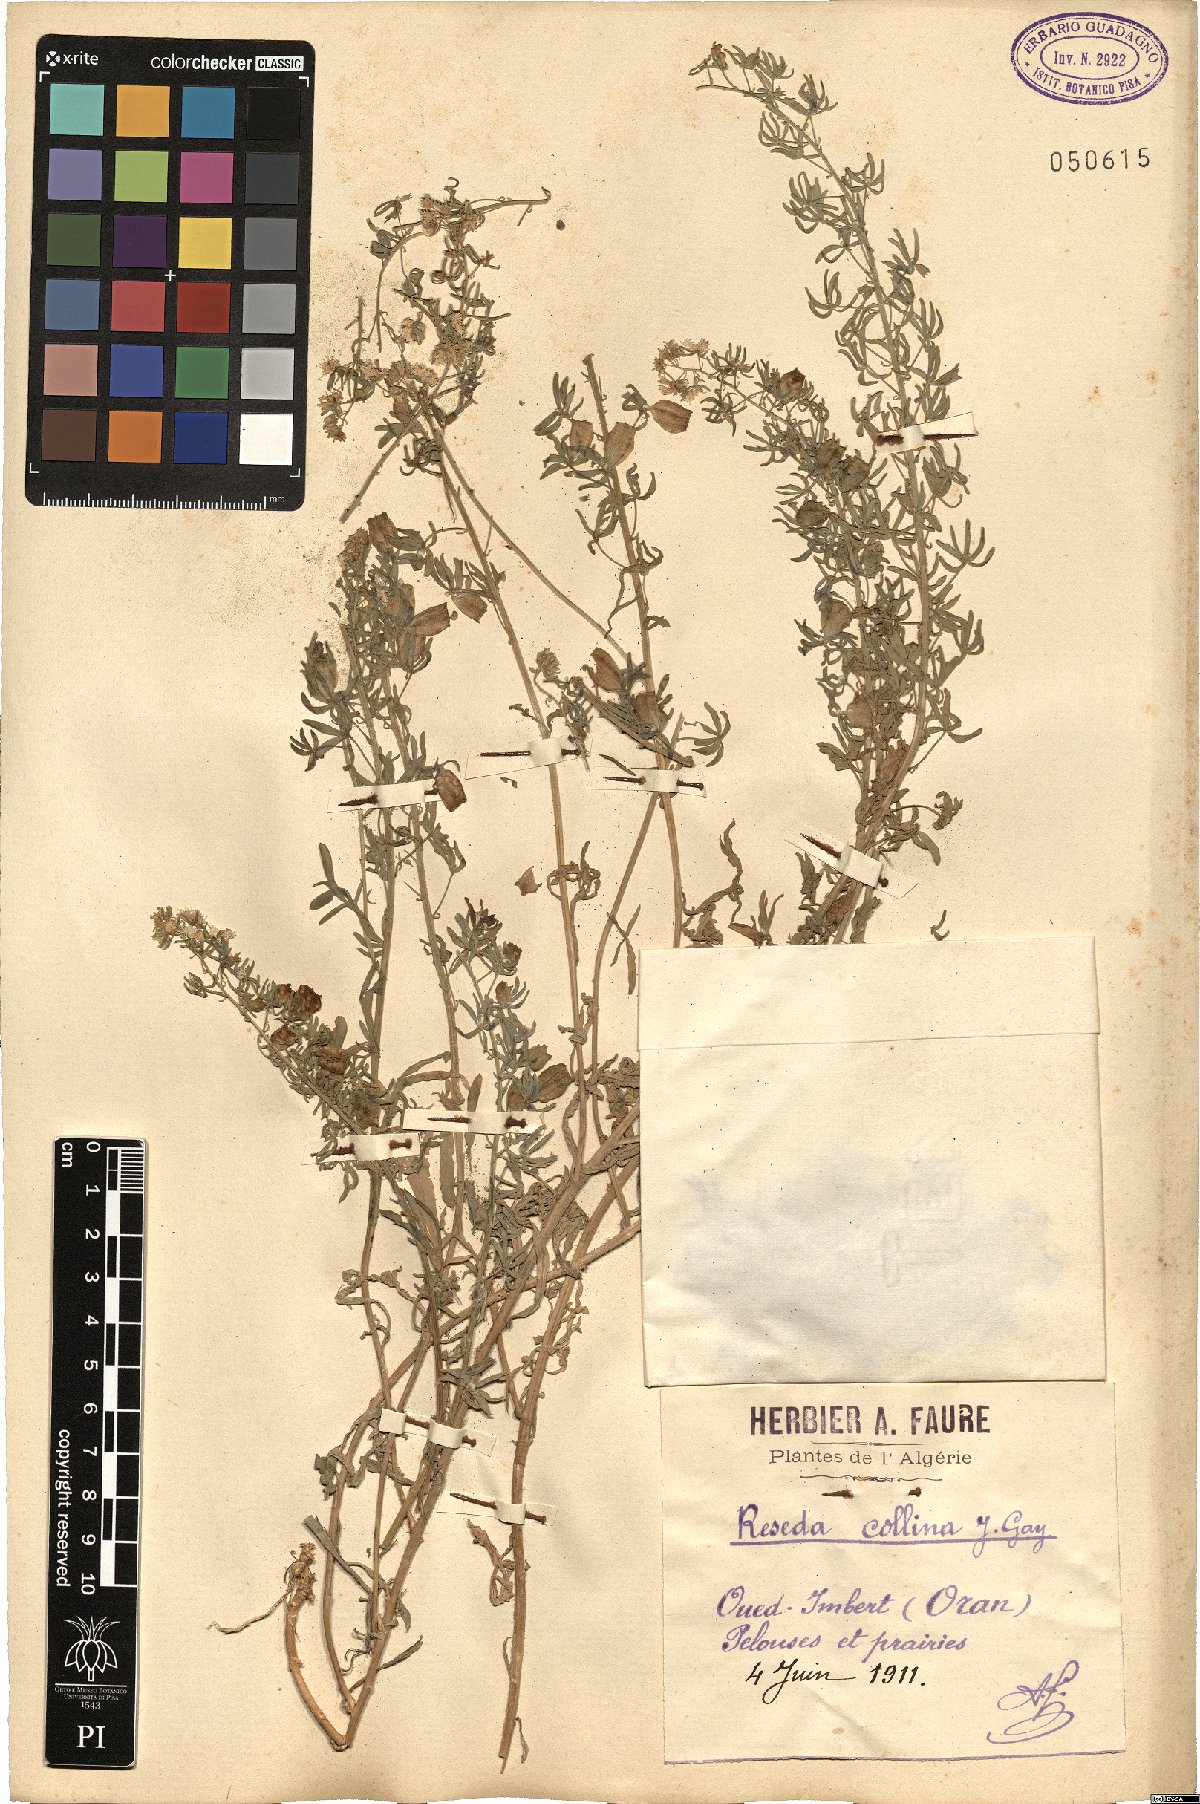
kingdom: Plantae
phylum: Tracheophyta
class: Magnoliopsida
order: Brassicales
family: Resedaceae
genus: Reseda
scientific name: Reseda collina
